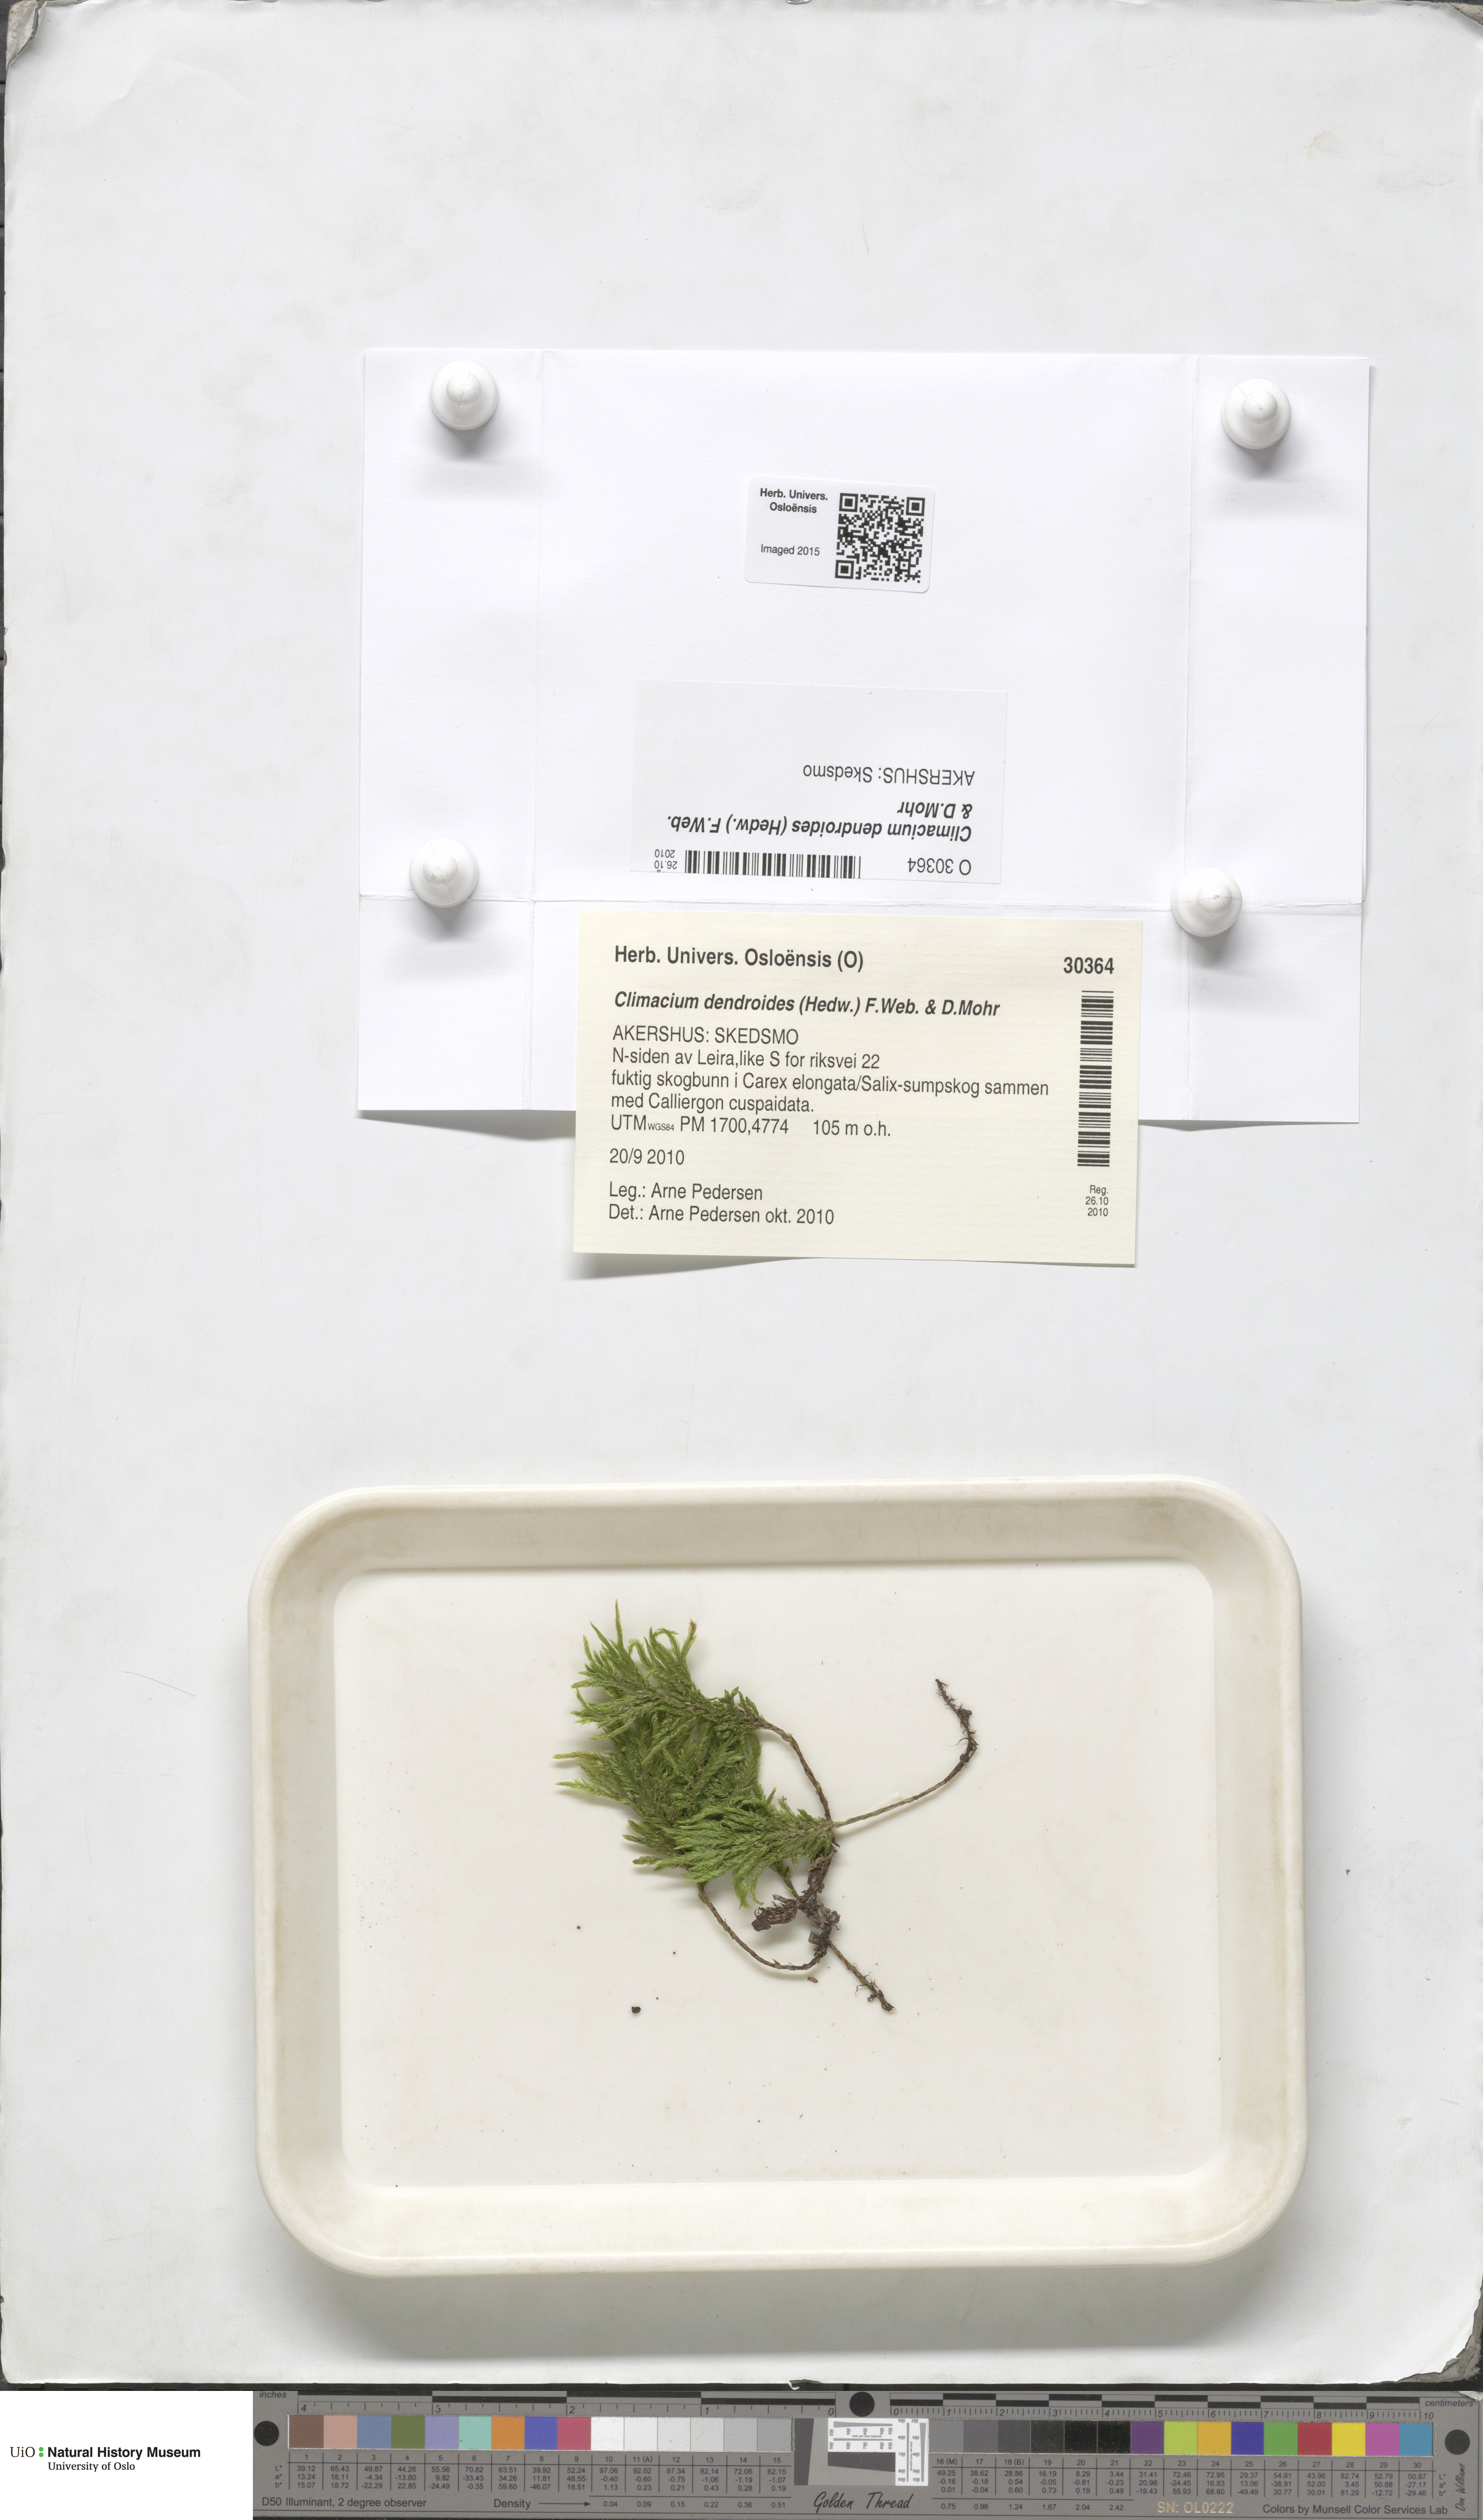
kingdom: Plantae
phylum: Bryophyta
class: Bryopsida
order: Hypnales
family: Climaciaceae
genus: Climacium
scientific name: Climacium dendroides
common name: Northern tree moss
